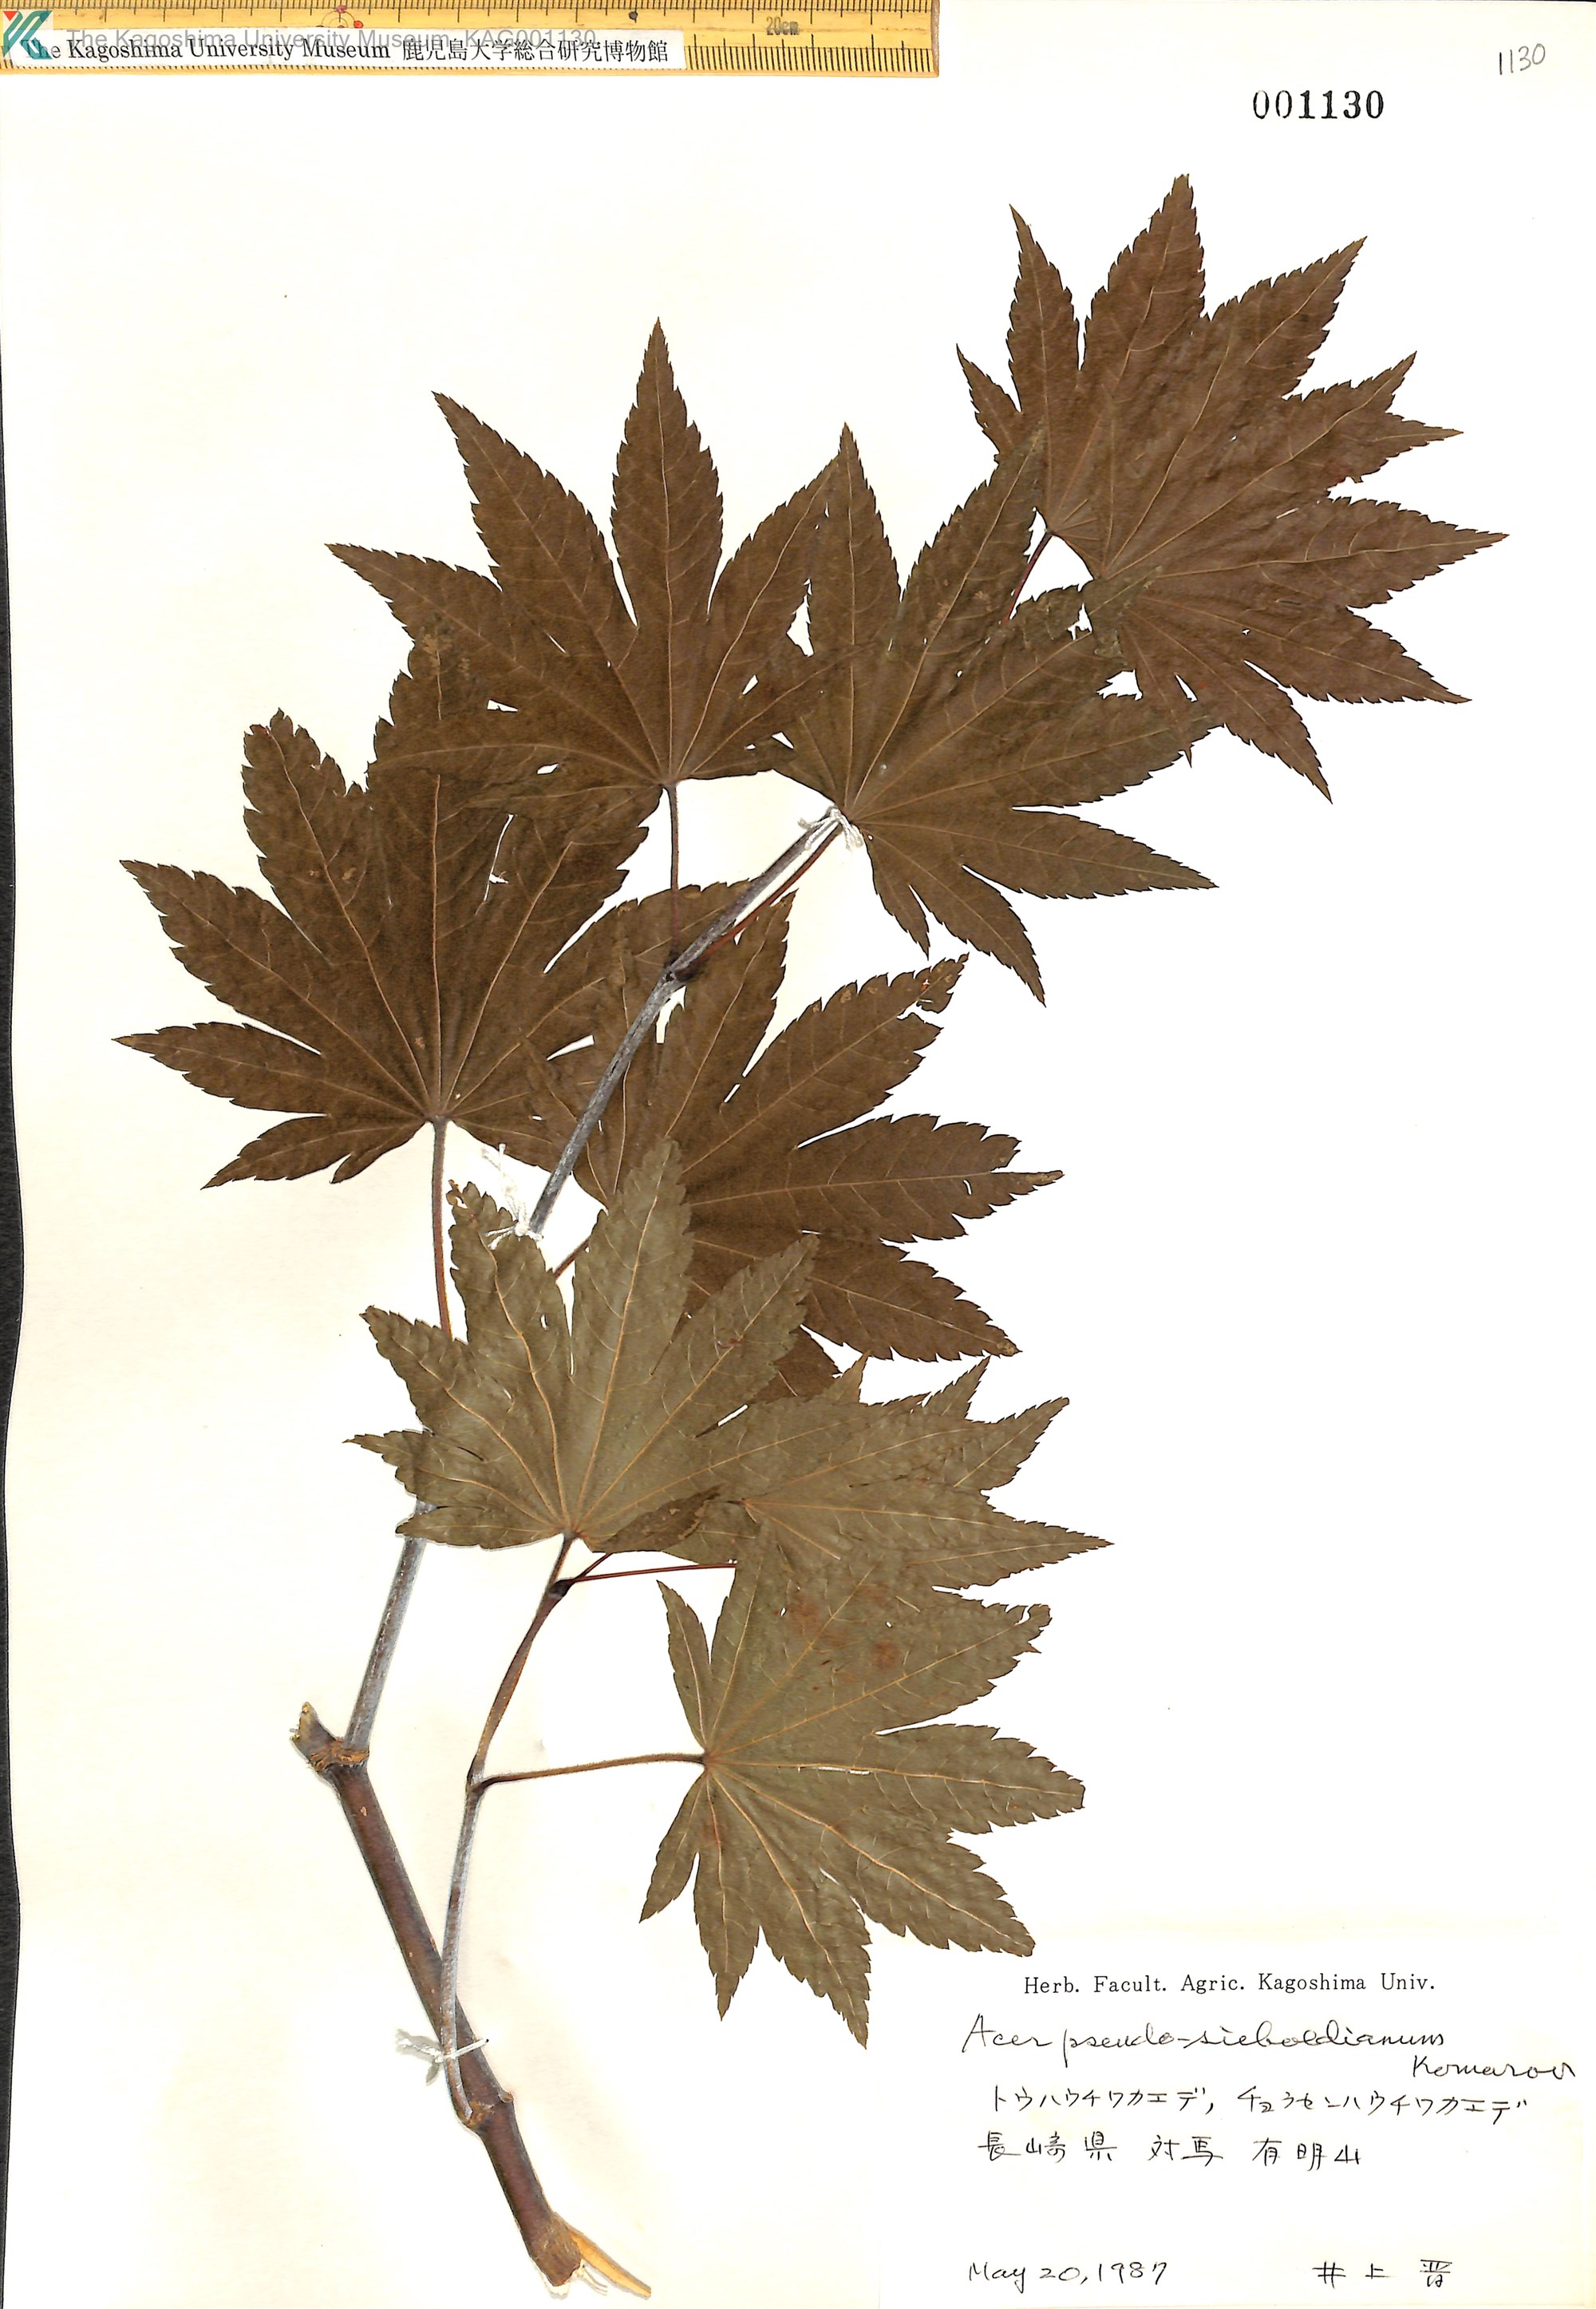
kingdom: Plantae
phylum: Tracheophyta
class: Magnoliopsida
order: Sapindales
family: Sapindaceae
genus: Acer
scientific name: Acer pseudosieboldianum
